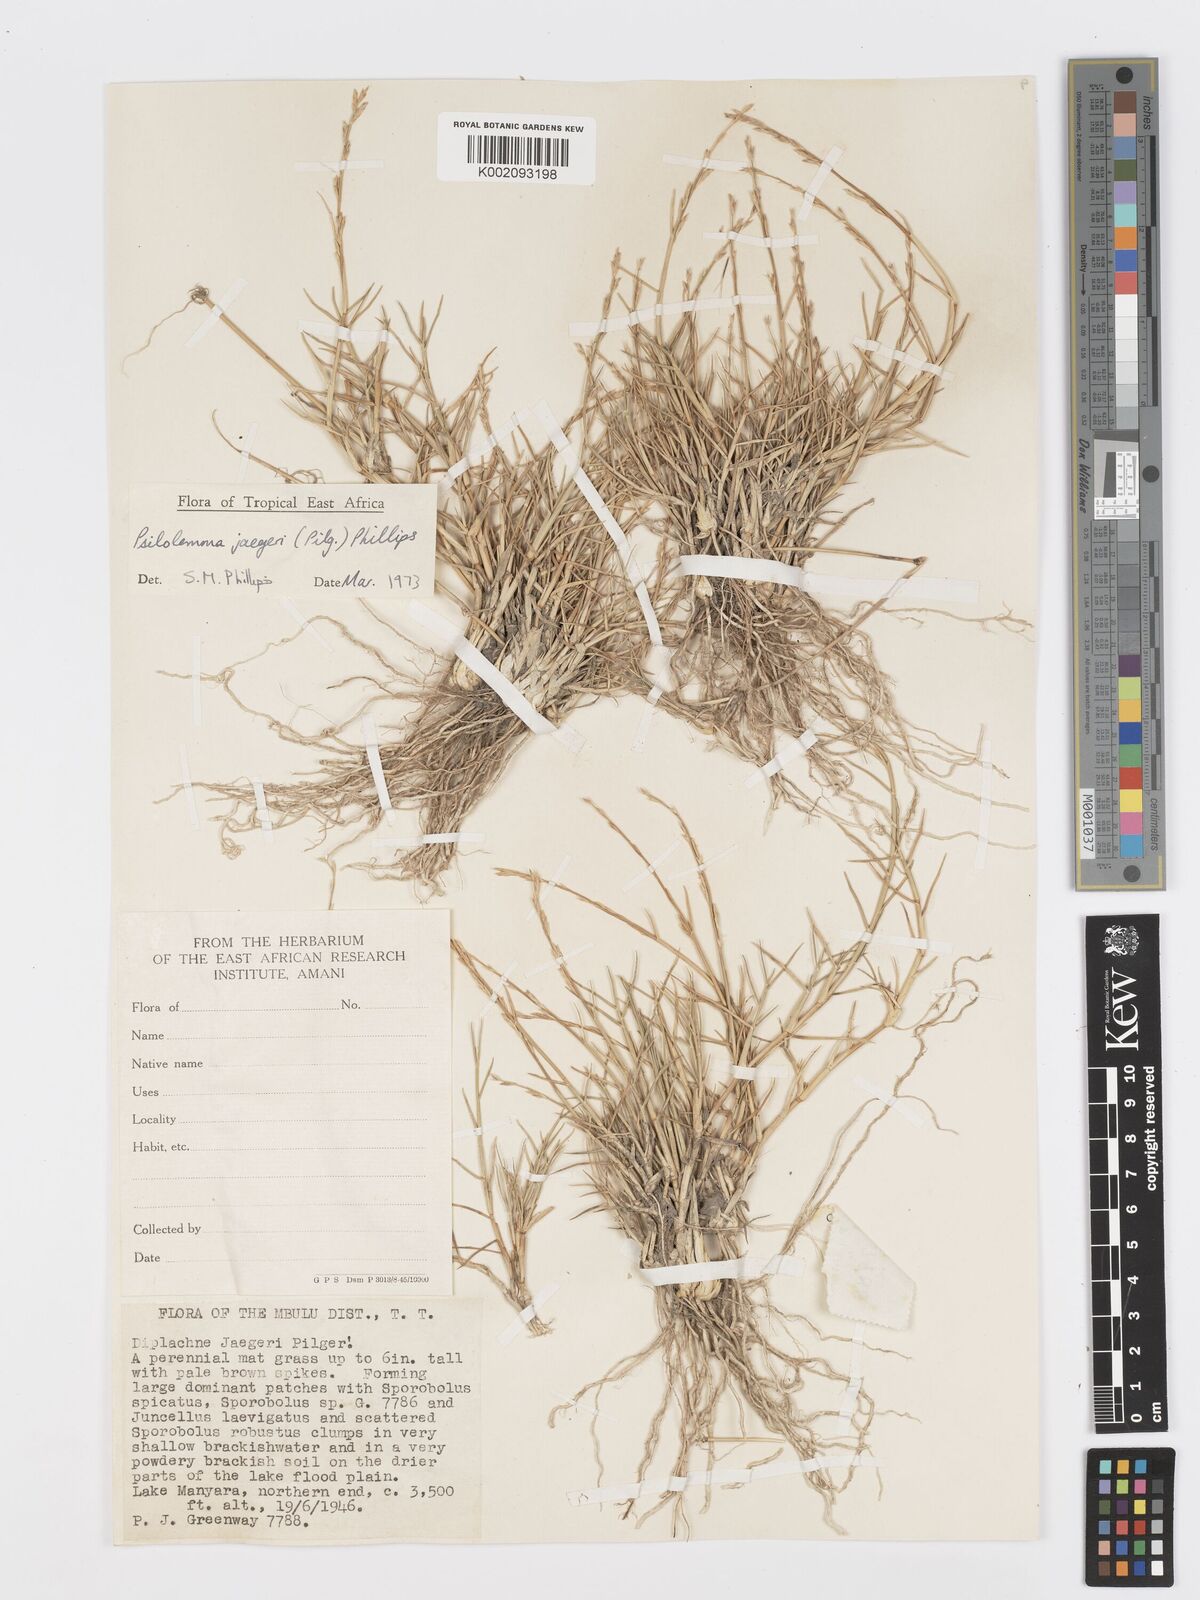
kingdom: Plantae
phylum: Tracheophyta
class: Liliopsida
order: Poales
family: Poaceae
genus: Psilolemma
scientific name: Psilolemma jaegeri
